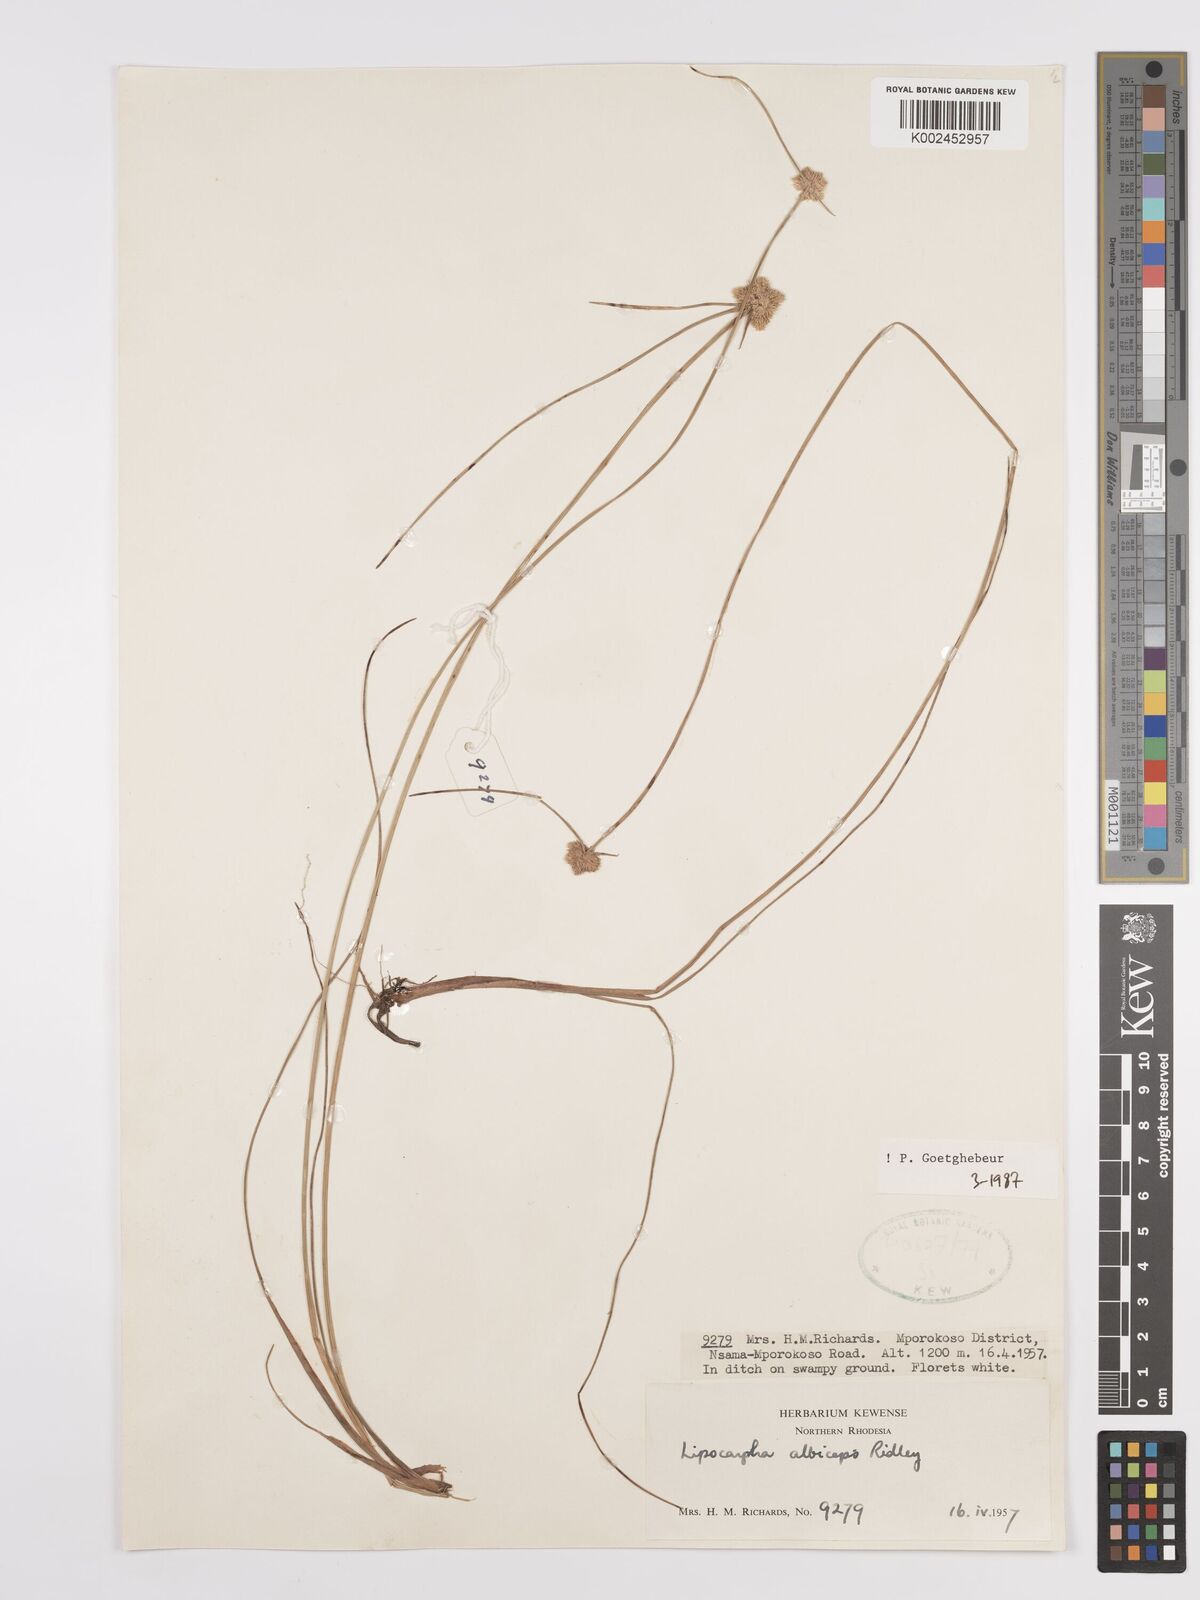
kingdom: Plantae
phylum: Tracheophyta
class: Liliopsida
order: Poales
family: Cyperaceae
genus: Cyperus
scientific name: Cyperus albiceps
